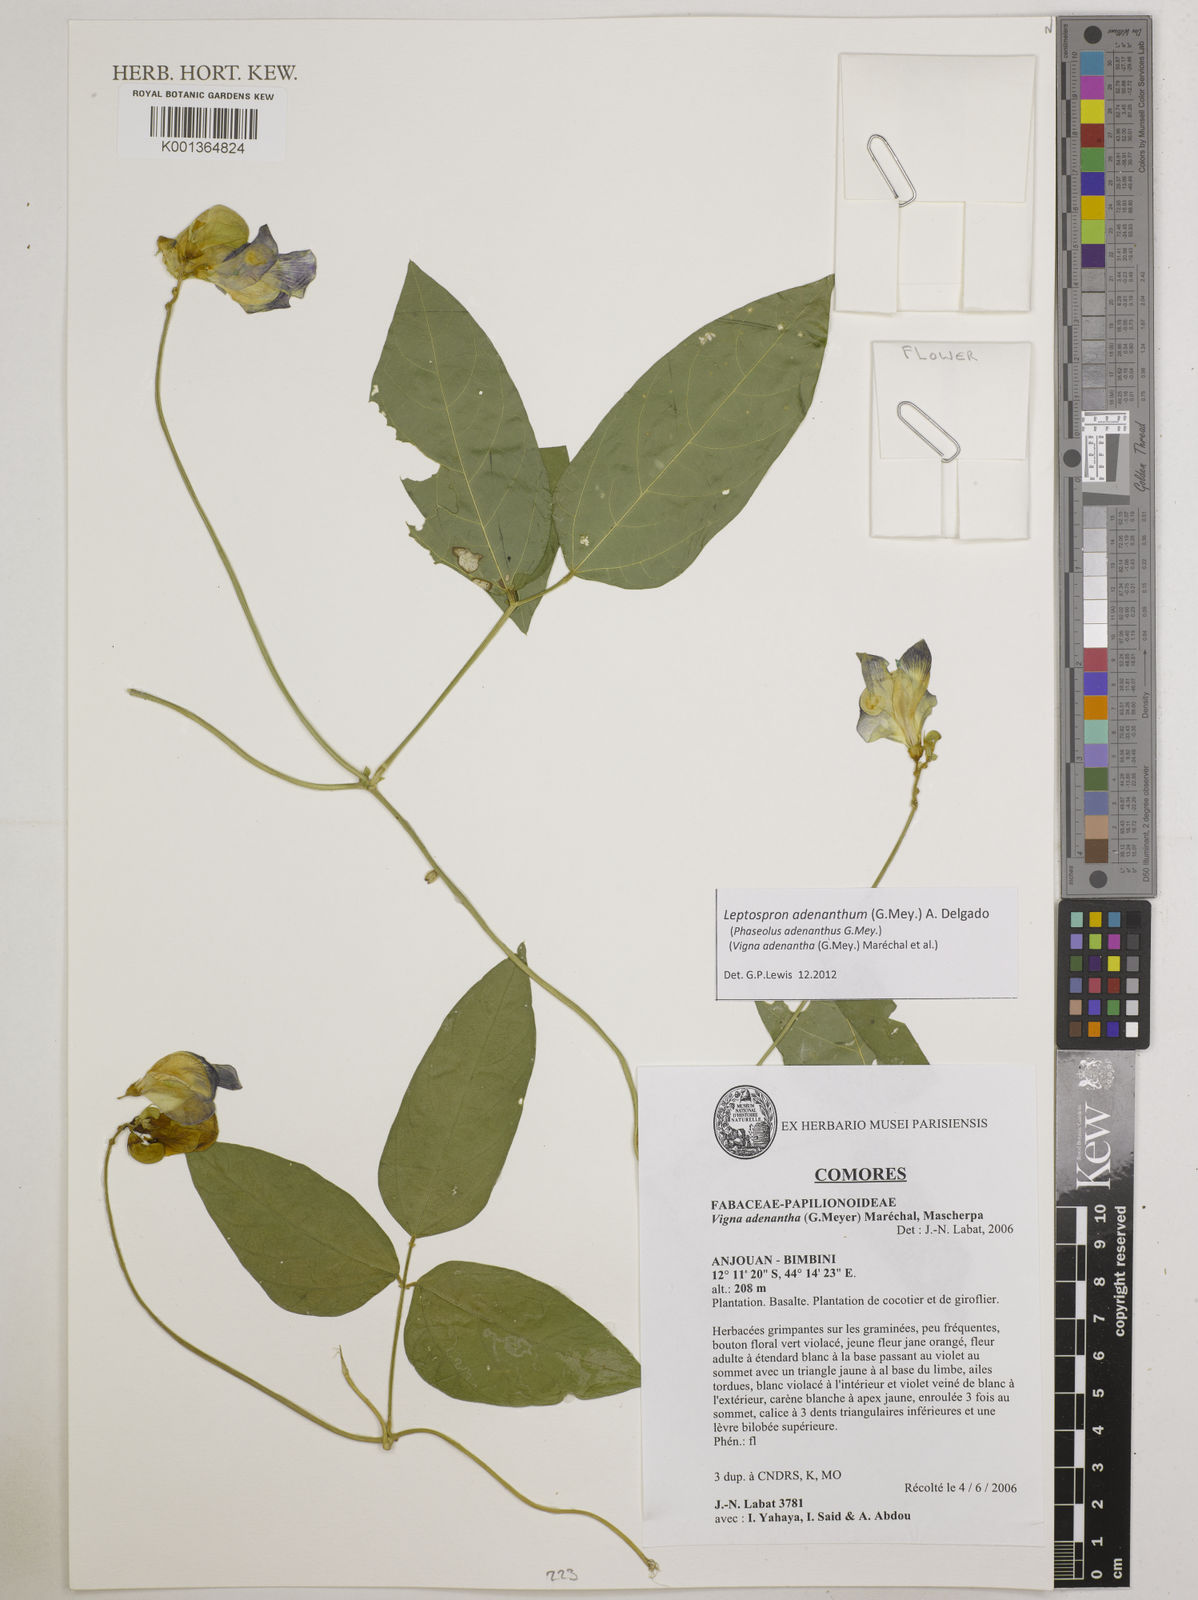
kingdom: Plantae
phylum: Tracheophyta
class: Magnoliopsida
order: Fabales
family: Fabaceae
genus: Leptospron
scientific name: Leptospron adenanthum
